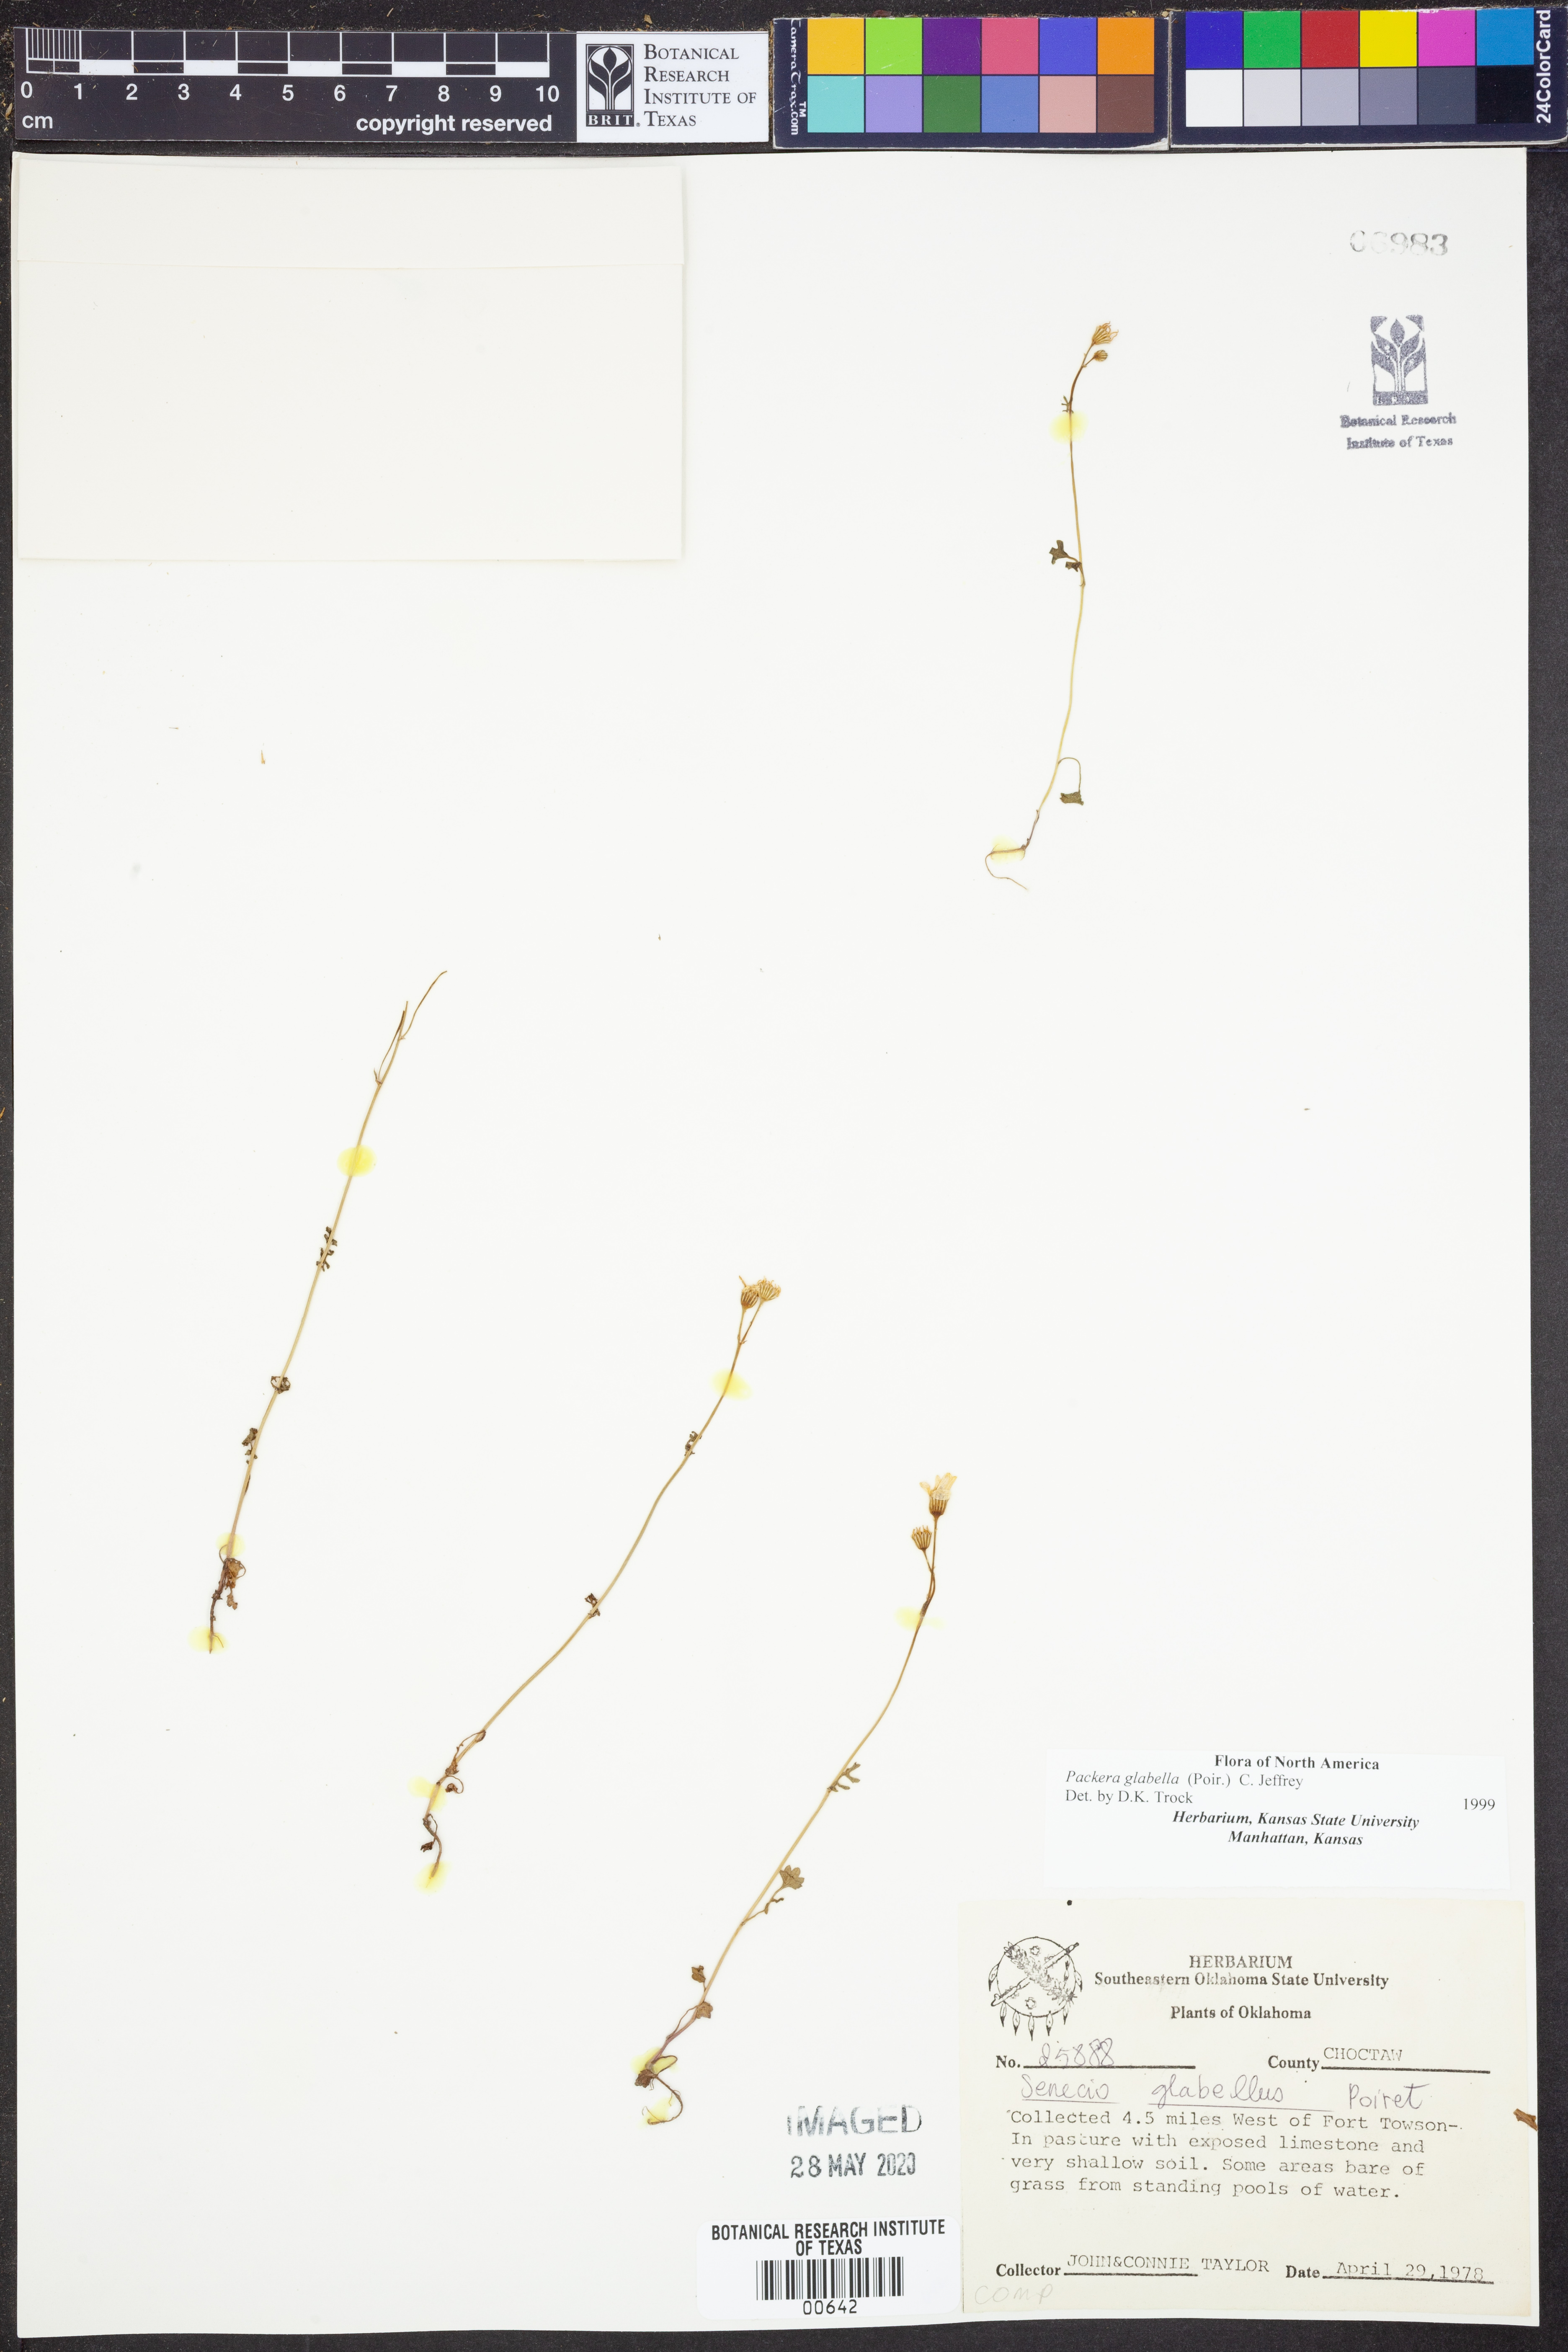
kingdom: Plantae
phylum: Tracheophyta
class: Magnoliopsida
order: Asterales
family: Asteraceae
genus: Packera
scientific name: Packera glabella
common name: Butterweed
